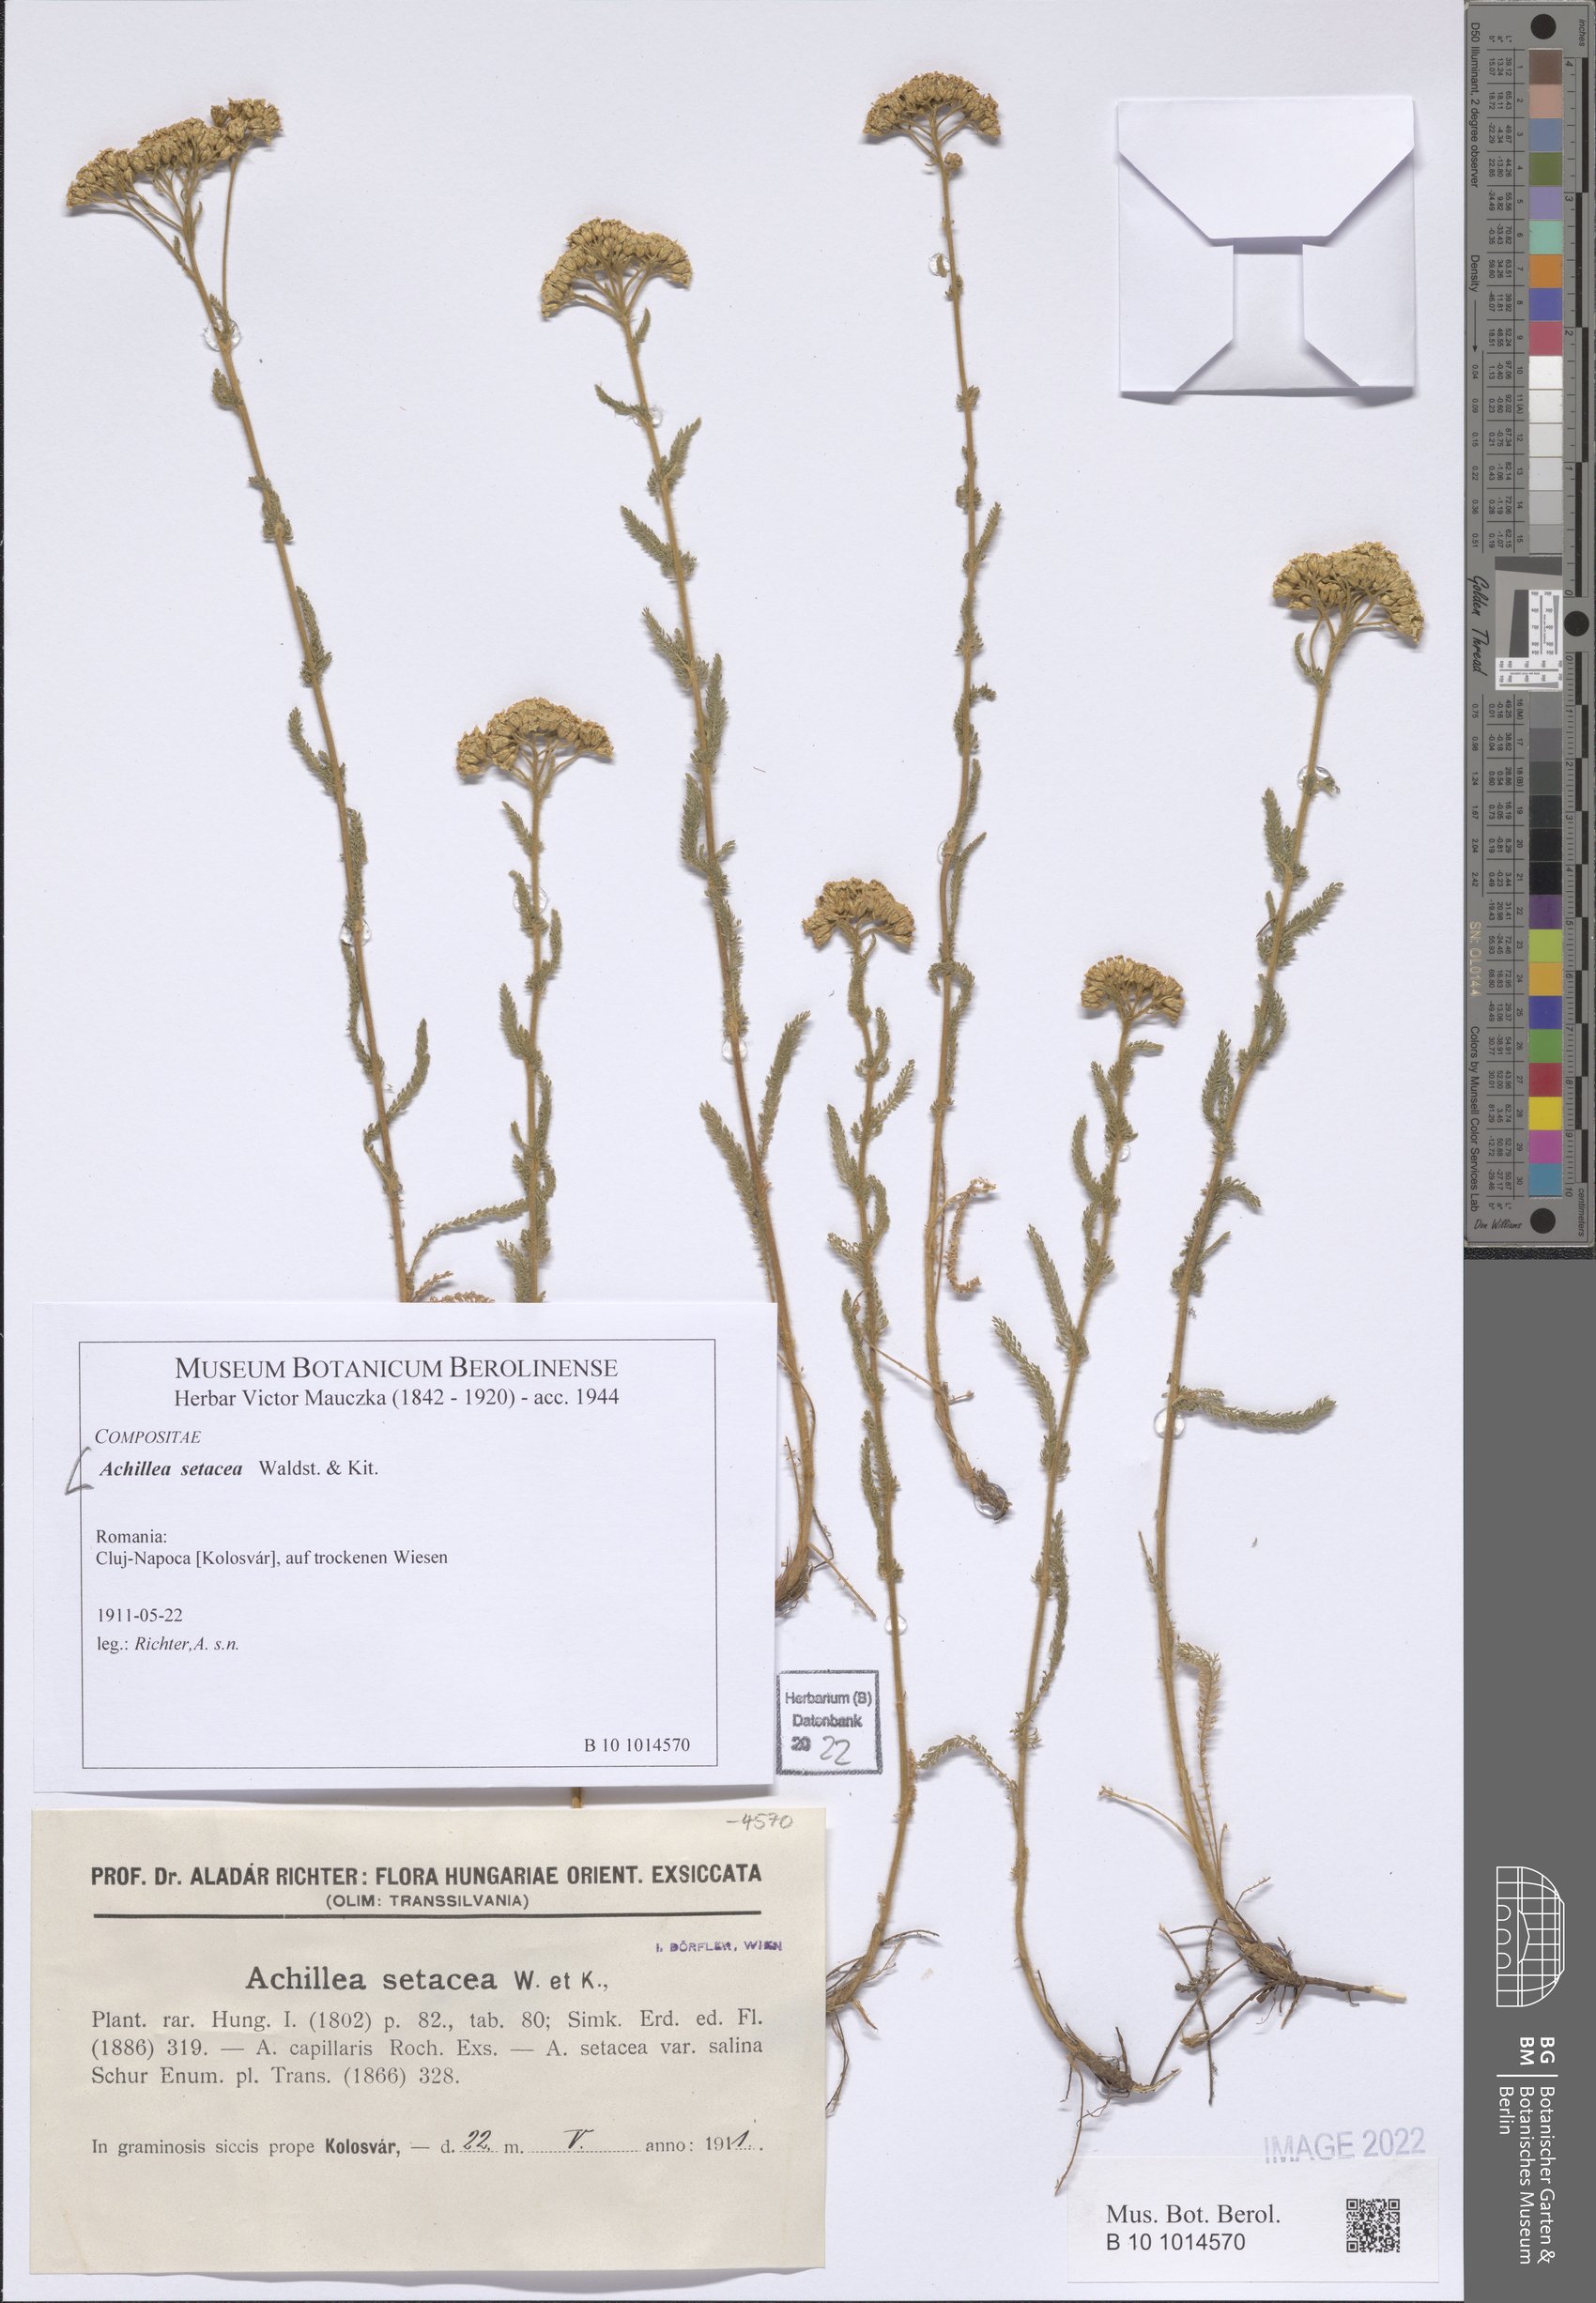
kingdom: Plantae
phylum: Tracheophyta
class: Magnoliopsida
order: Asterales
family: Asteraceae
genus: Achillea
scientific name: Achillea setacea
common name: Bristly yarrow
